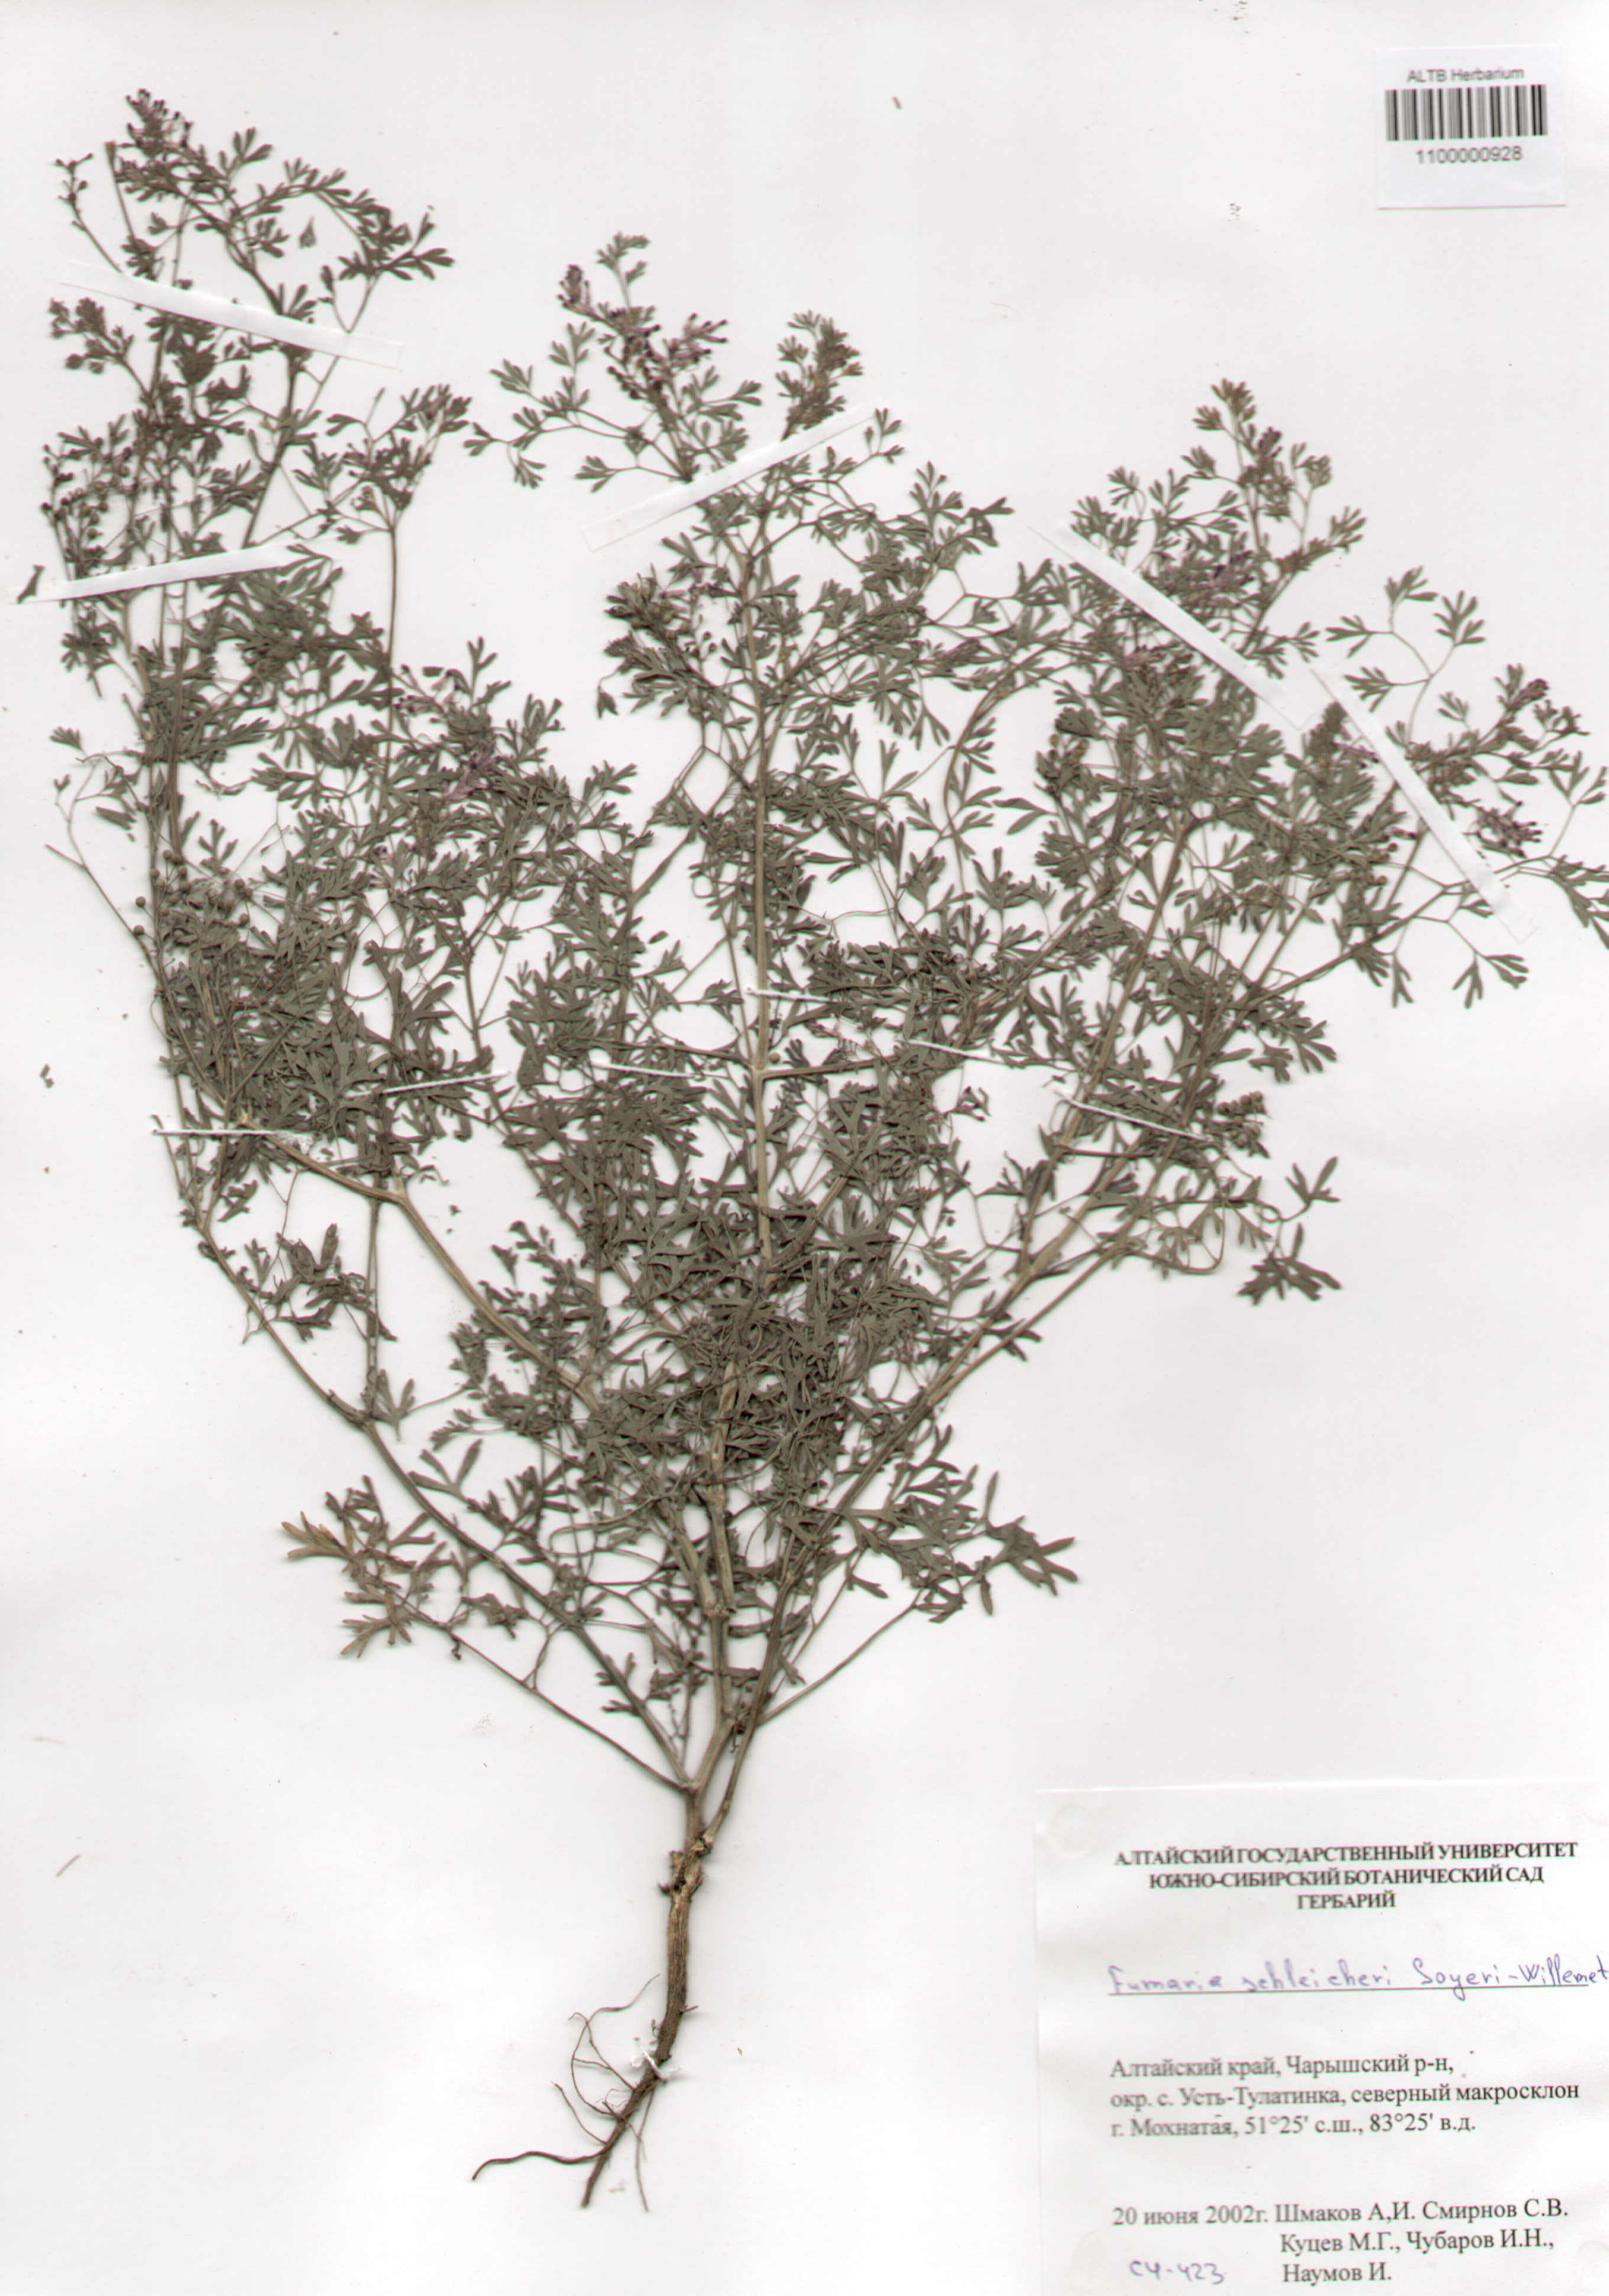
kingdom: Plantae
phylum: Tracheophyta
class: Magnoliopsida
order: Ranunculales
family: Papaveraceae
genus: Fumaria
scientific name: Fumaria schleicheri
